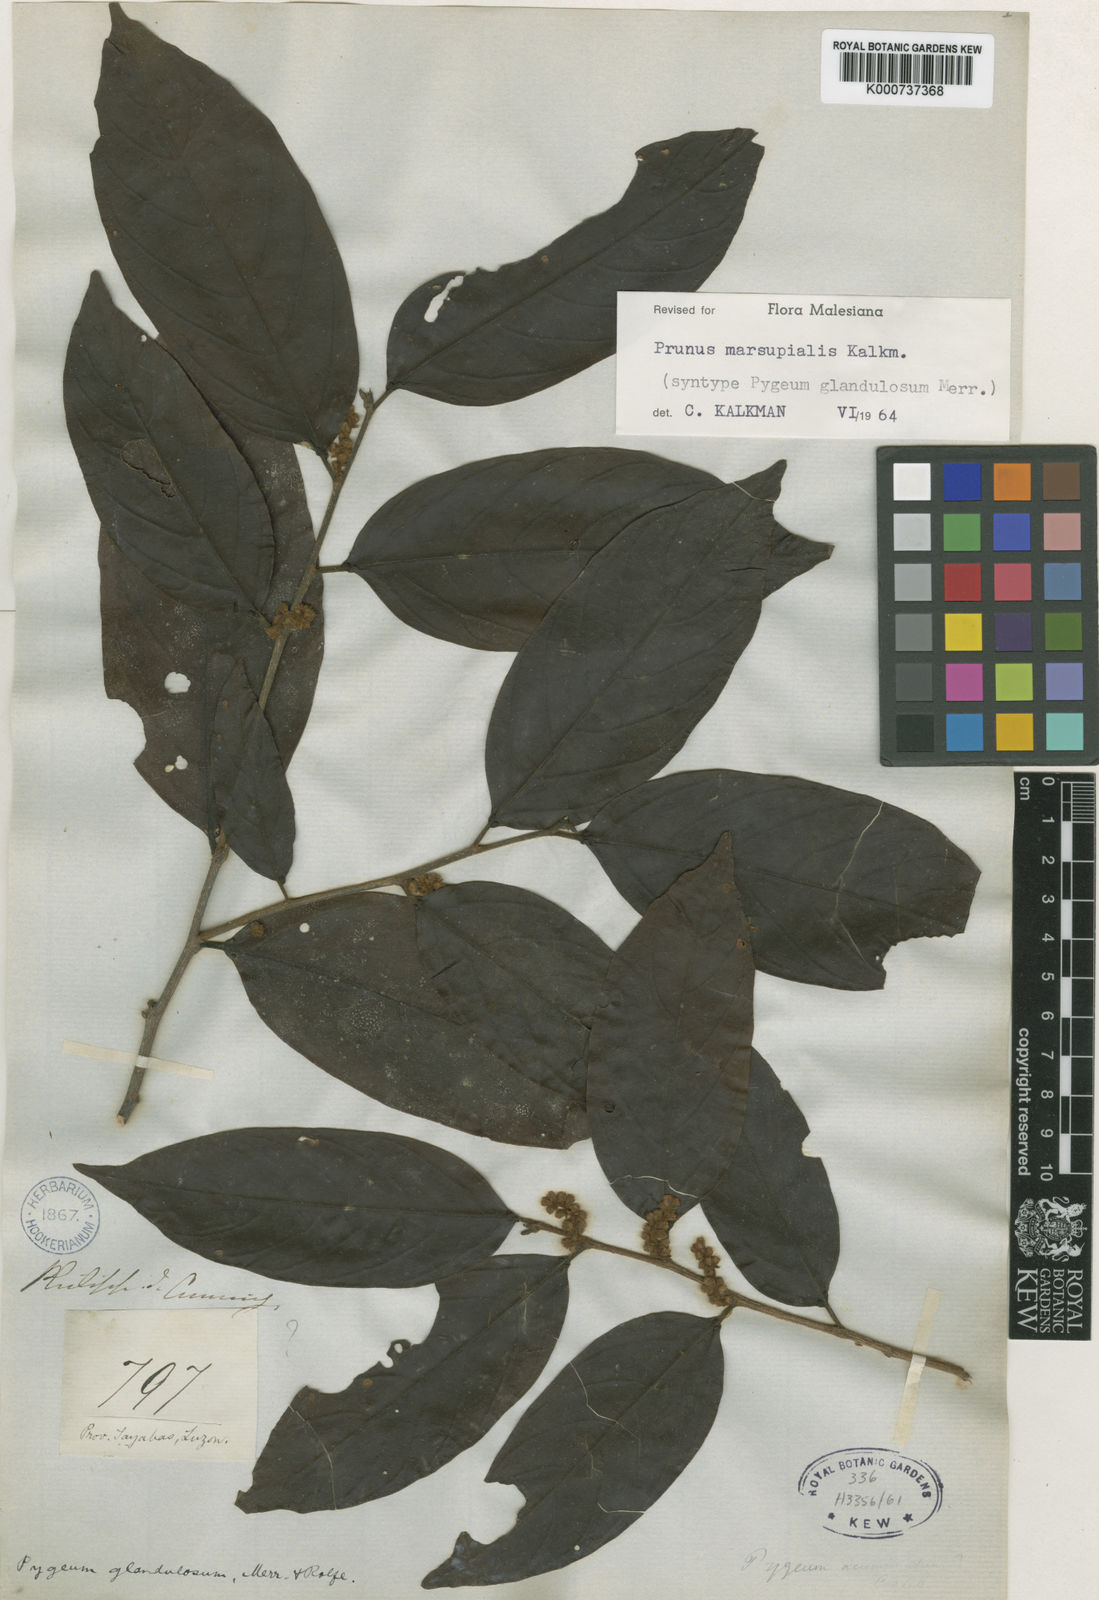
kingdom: Plantae
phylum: Tracheophyta
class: Magnoliopsida
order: Rosales
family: Rosaceae
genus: Prunus
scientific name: Prunus marsupialis
